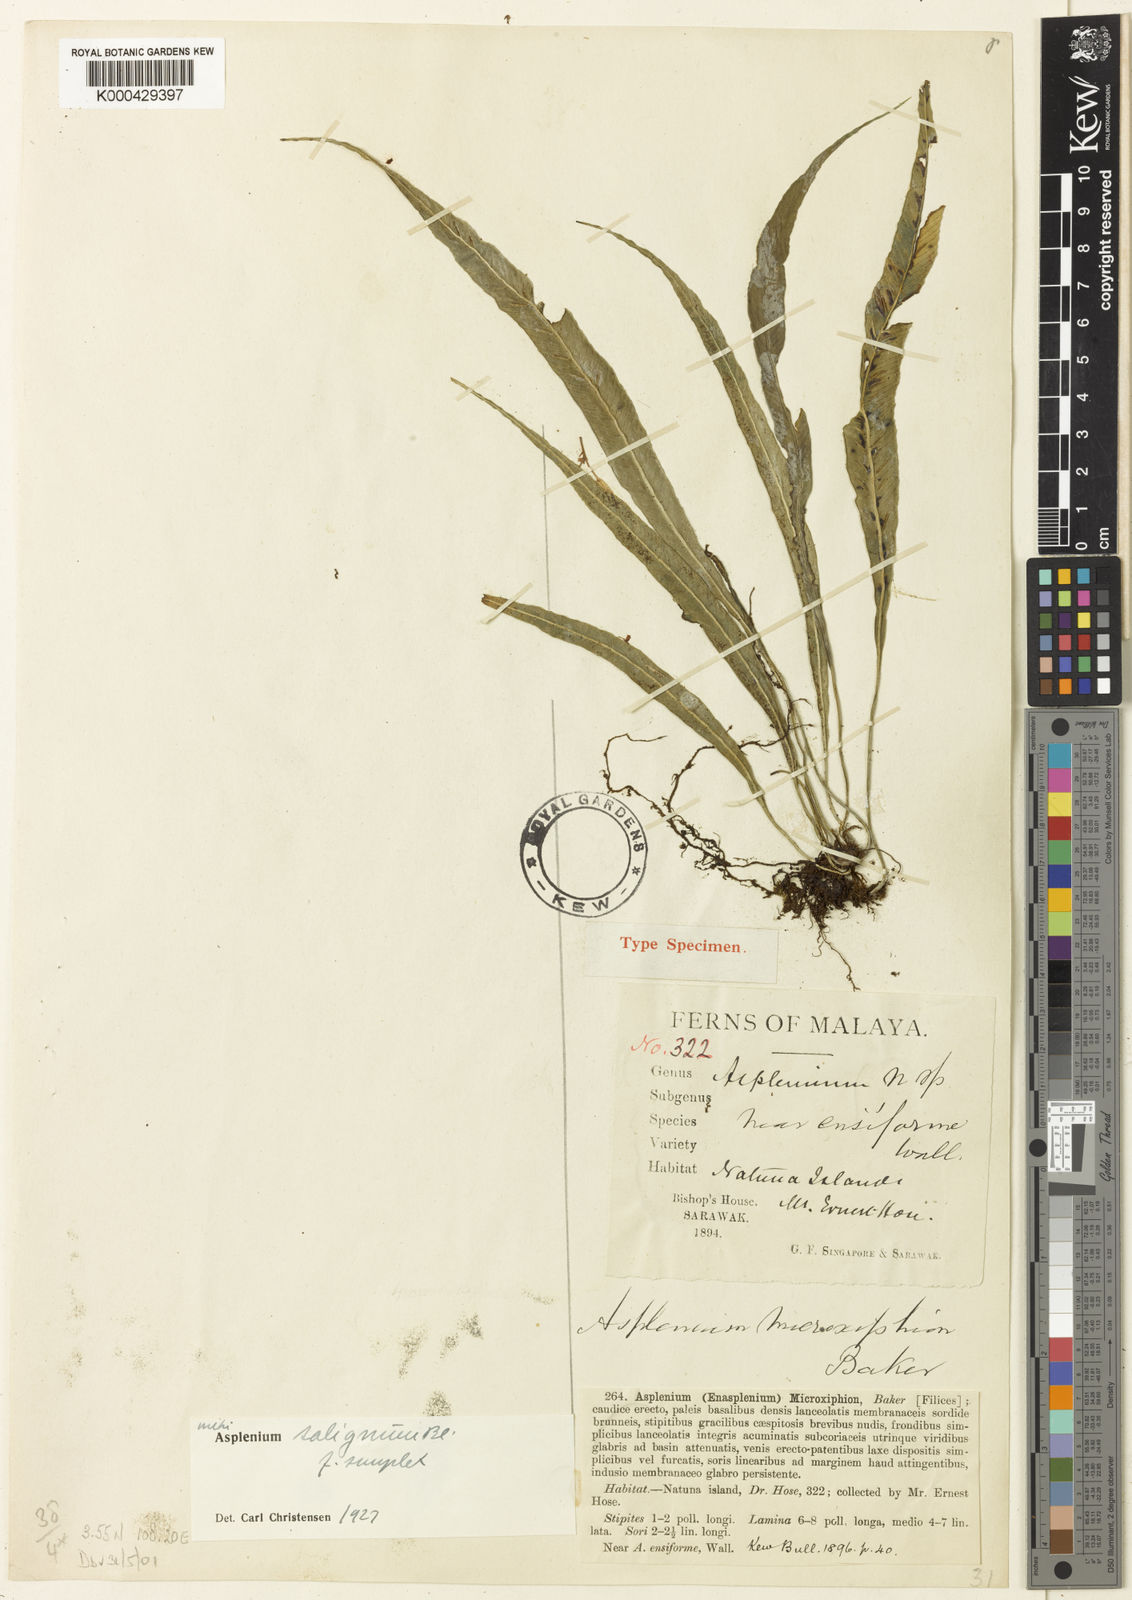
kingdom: Plantae
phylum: Tracheophyta
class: Polypodiopsida
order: Polypodiales
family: Aspleniaceae
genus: Asplenium
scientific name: Asplenium microxiphion
